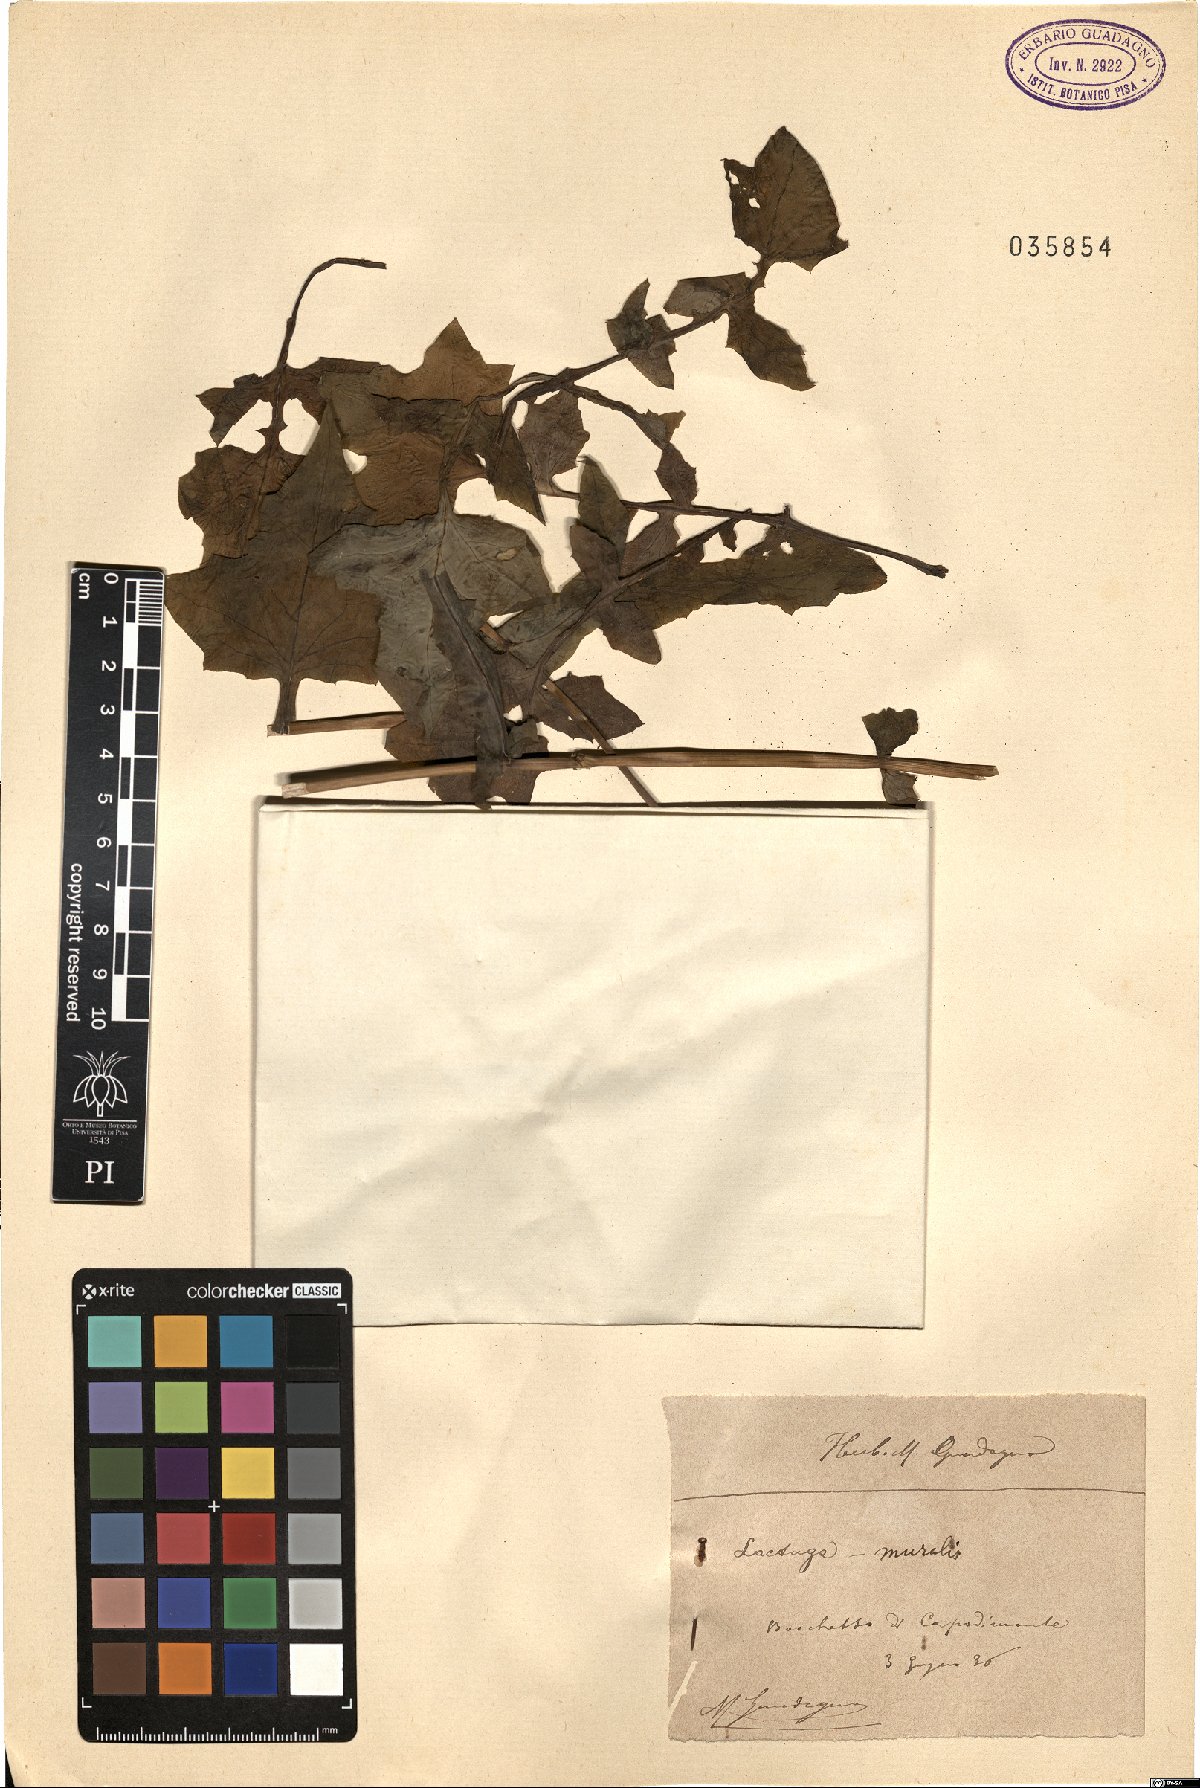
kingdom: Plantae
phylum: Tracheophyta
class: Magnoliopsida
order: Asterales
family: Asteraceae
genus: Mycelis
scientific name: Mycelis muralis
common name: Wall lettuce
